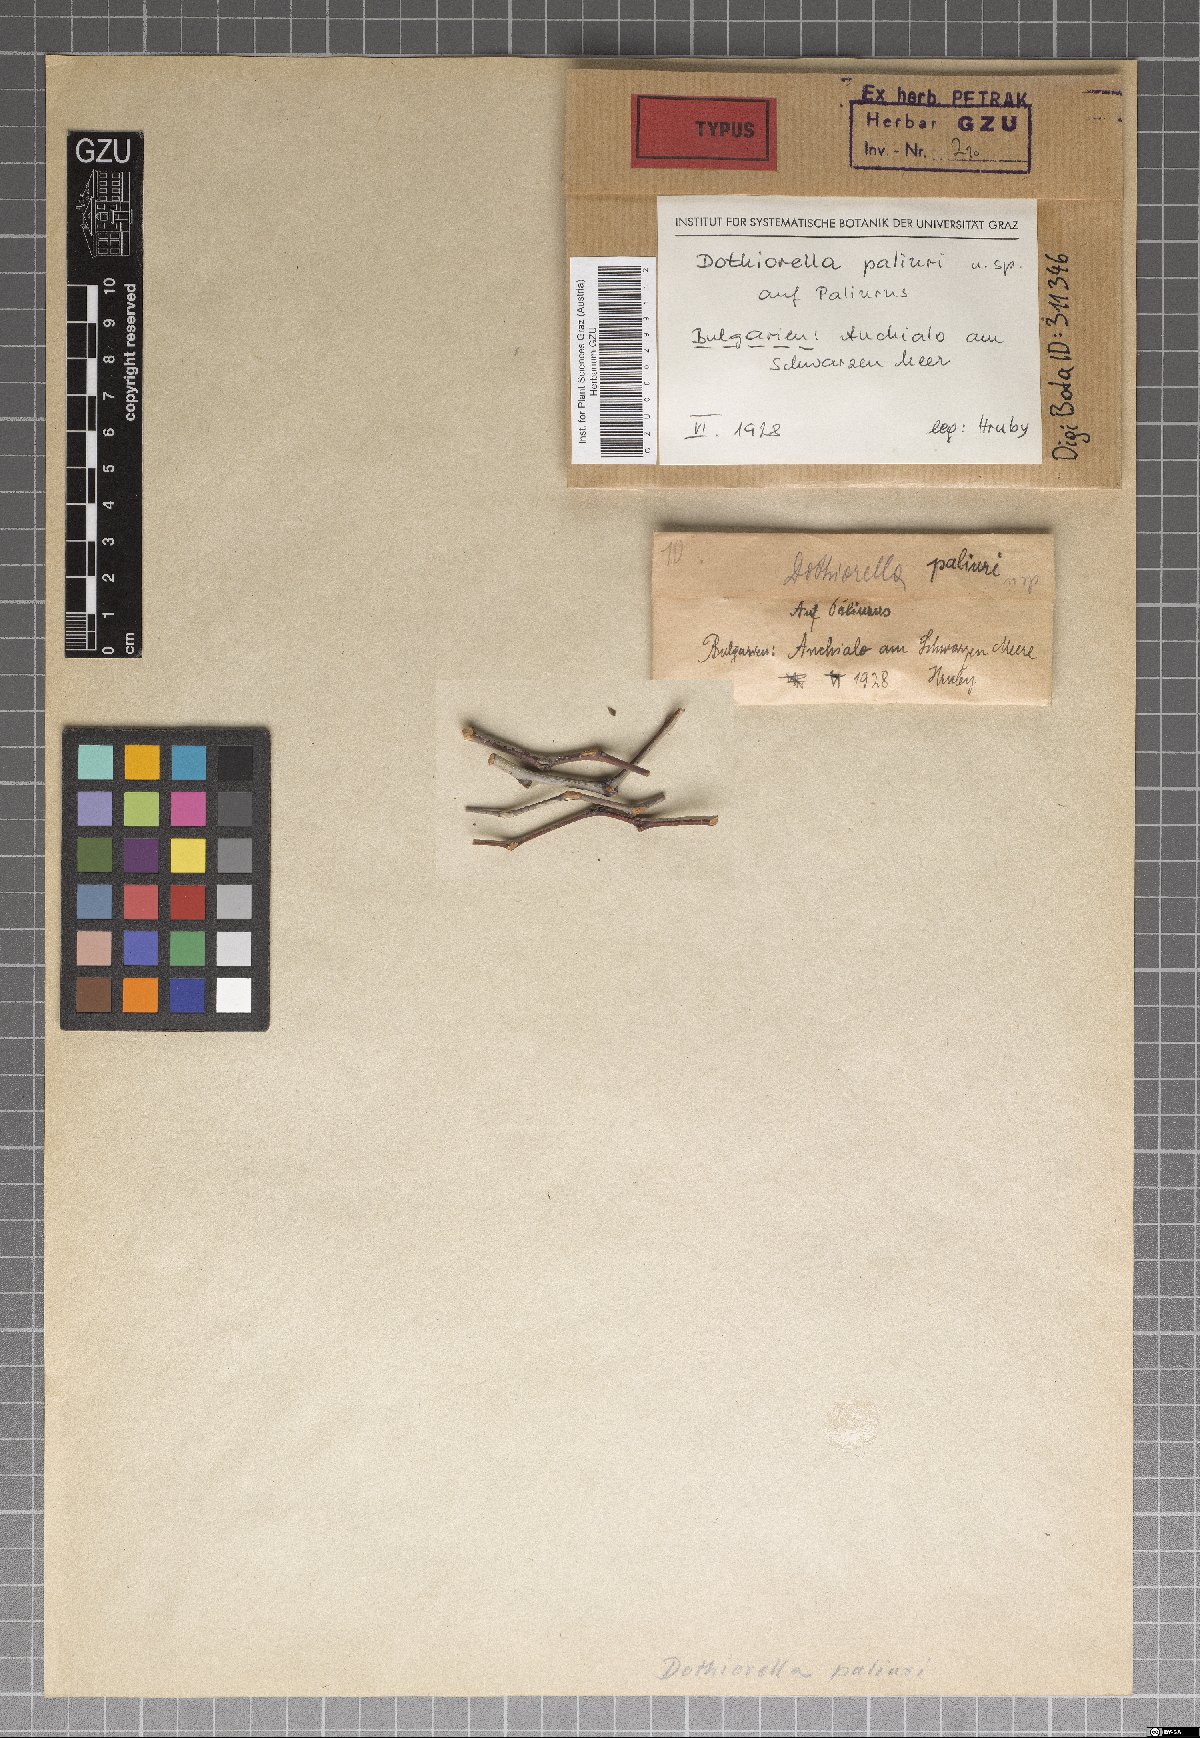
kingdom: Fungi
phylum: Ascomycota
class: Dothideomycetes
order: Botryosphaeriales
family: Botryosphaeriaceae
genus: Dothiorella
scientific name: Dothiorella paliuri
